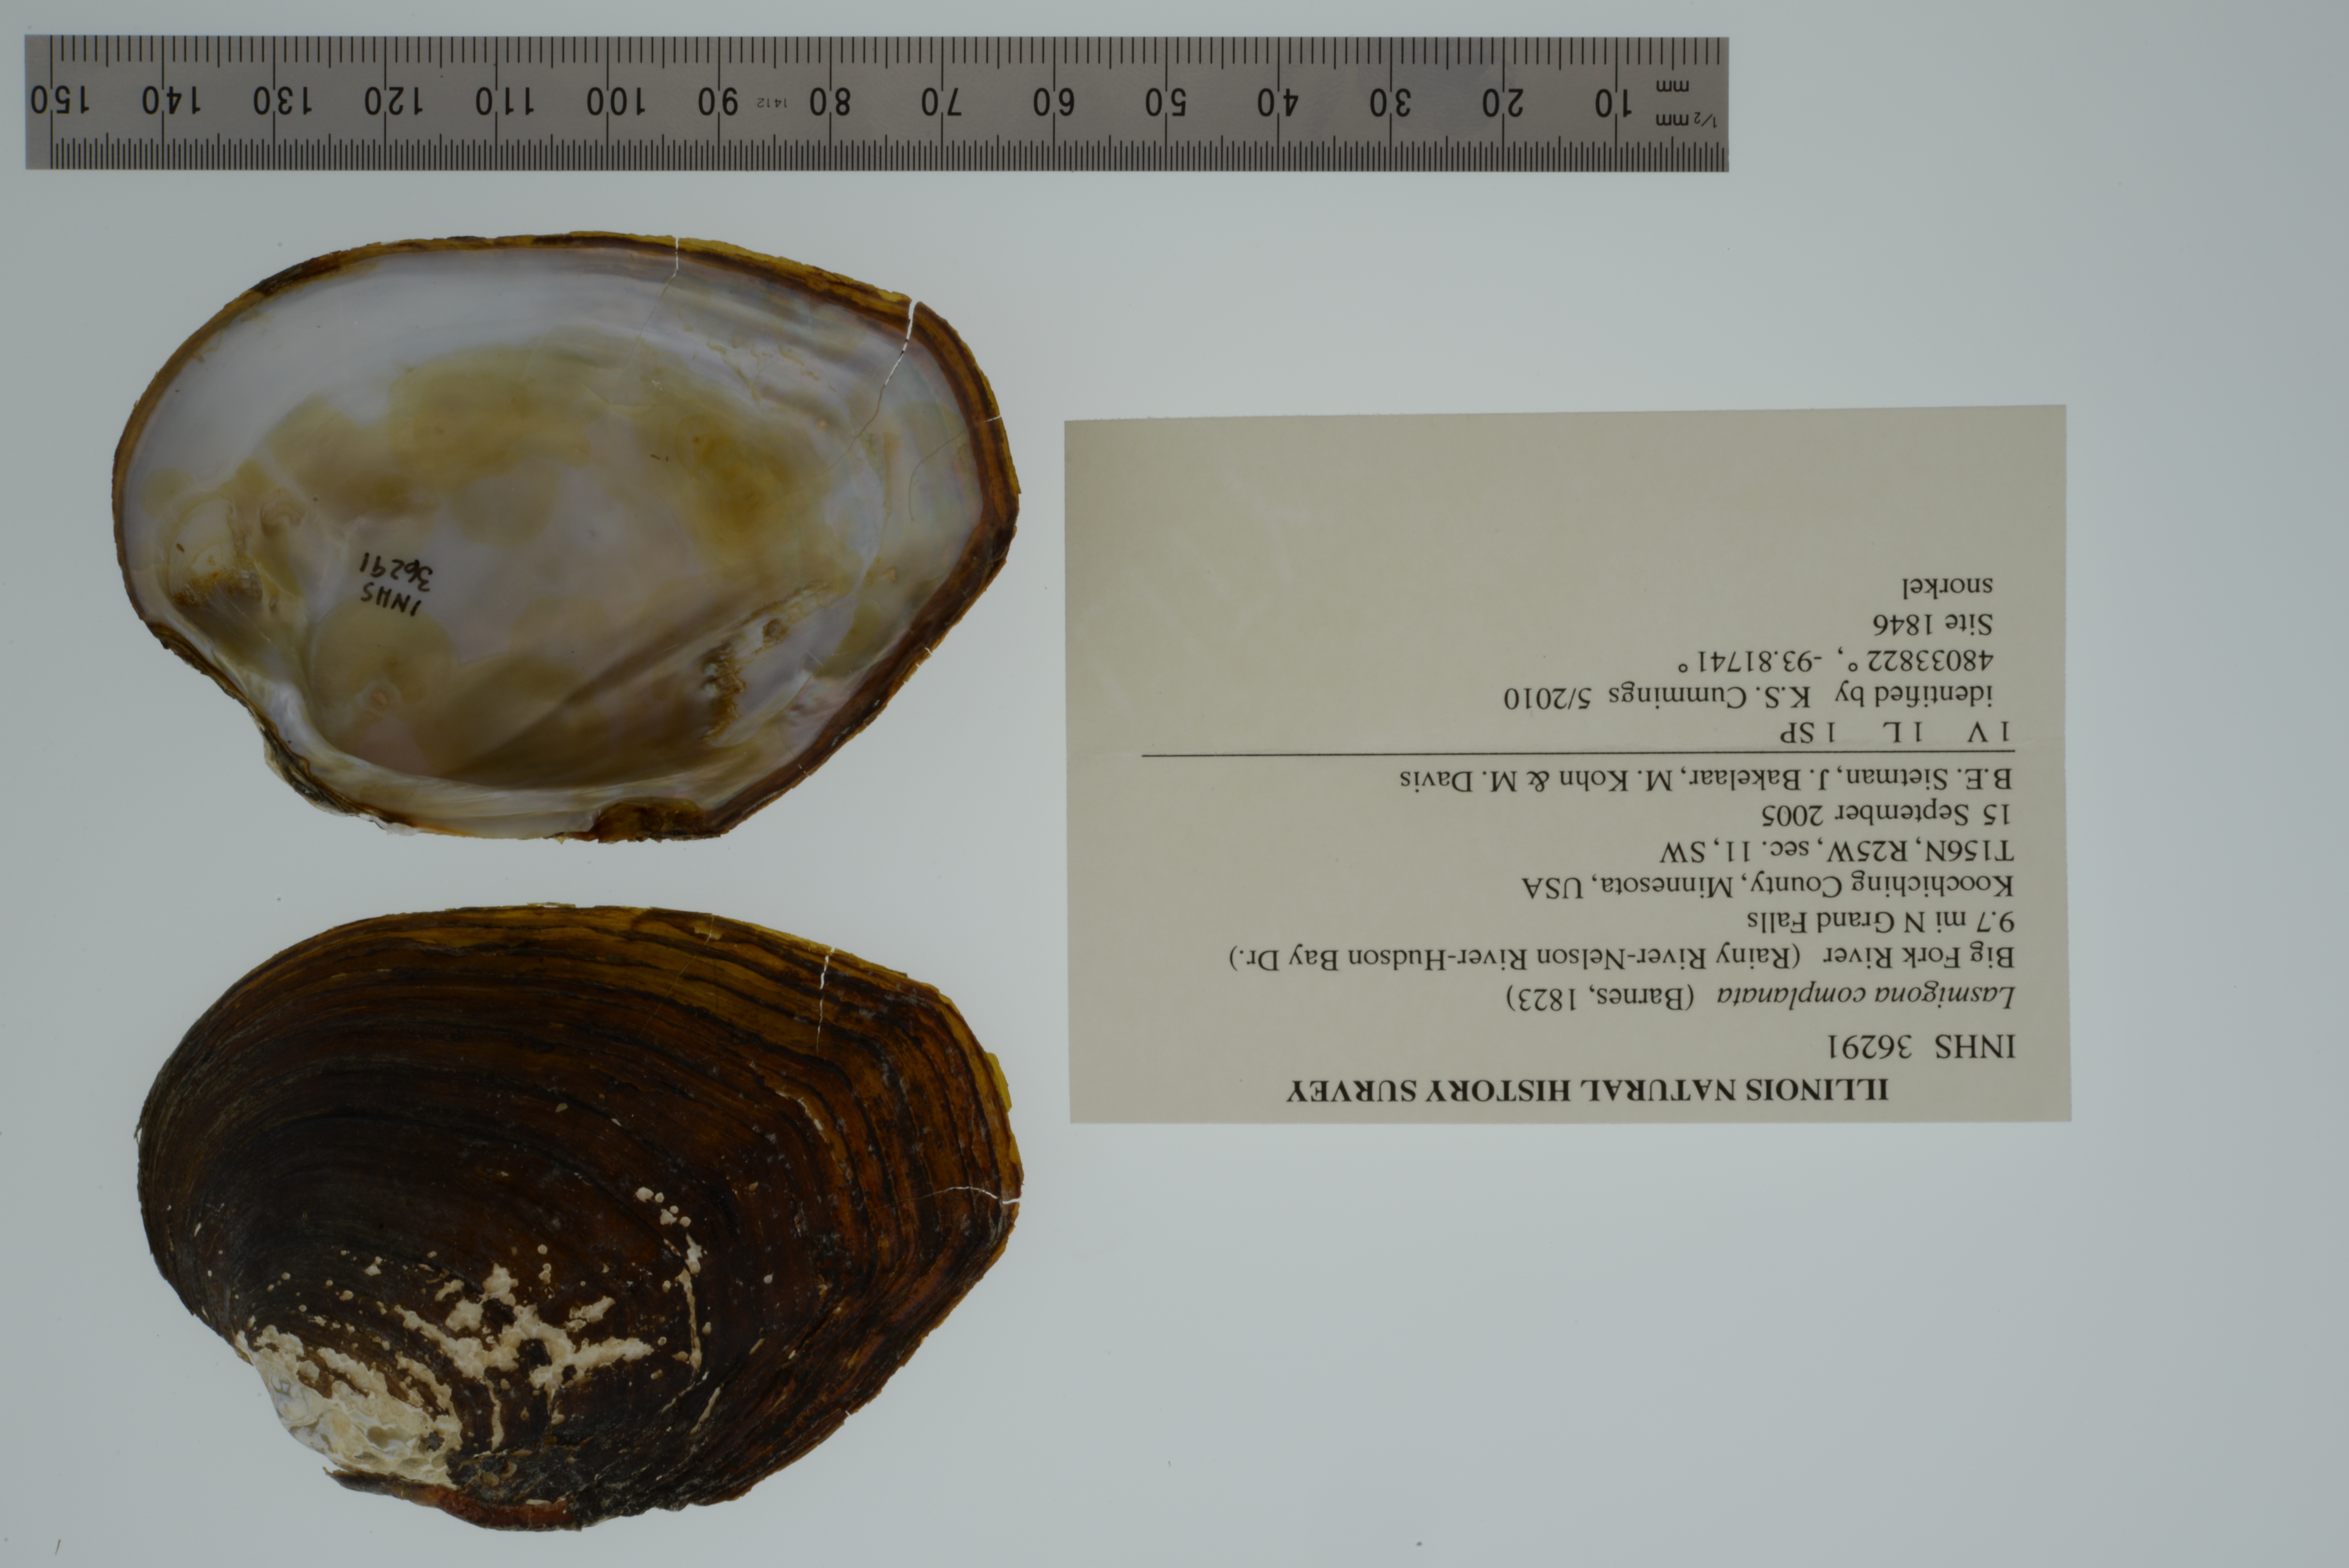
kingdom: Animalia
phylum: Mollusca
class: Bivalvia
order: Unionida
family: Unionidae
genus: Lasmigona
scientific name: Lasmigona complanata
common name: White heelsplitter
